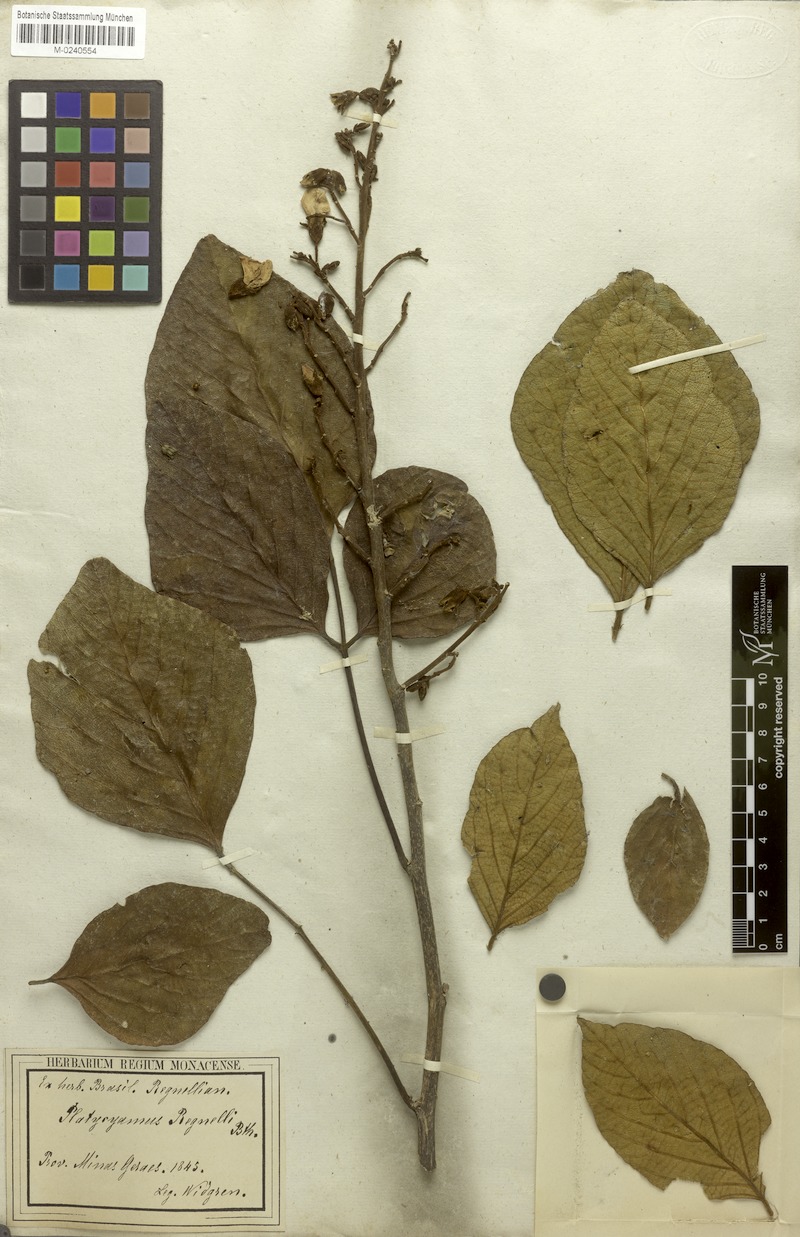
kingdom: Plantae
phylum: Tracheophyta
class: Magnoliopsida
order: Fabales
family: Fabaceae
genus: Platycyamus
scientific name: Platycyamus regnellii
